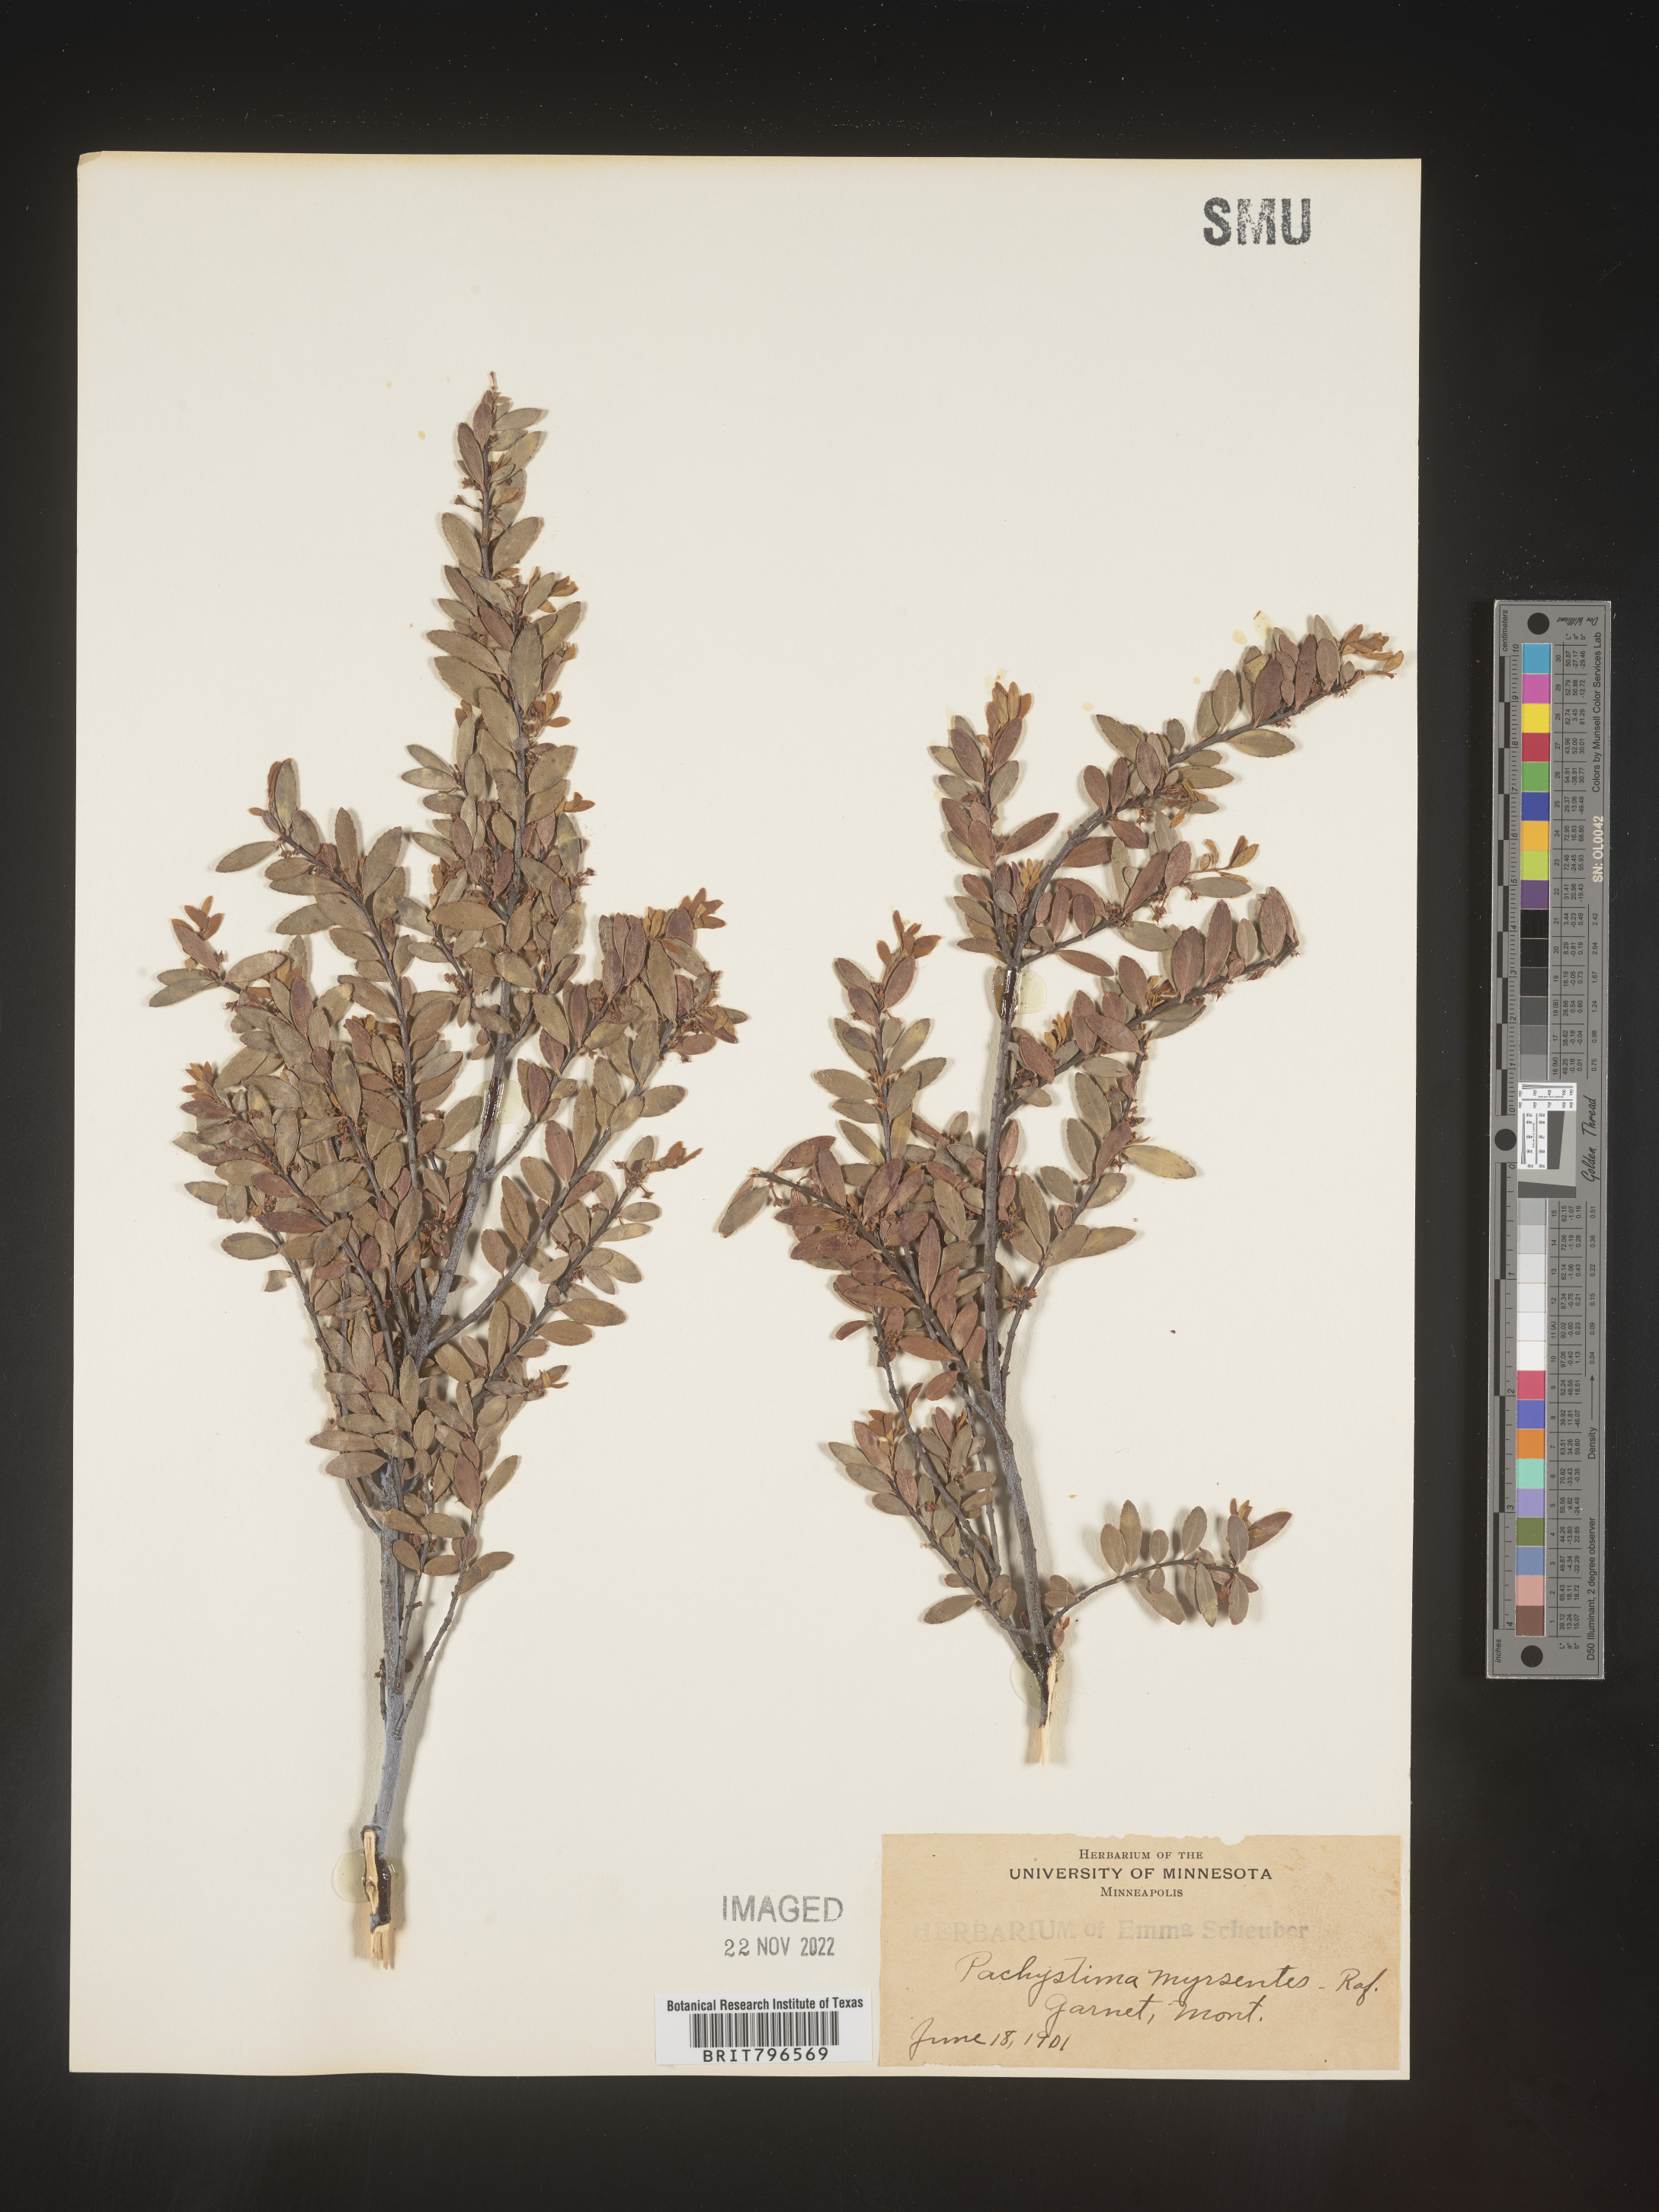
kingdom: Plantae
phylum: Tracheophyta
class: Magnoliopsida
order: Celastrales
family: Celastraceae
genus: Paxistima
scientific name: Paxistima myrsinites
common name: Mountain-lover
